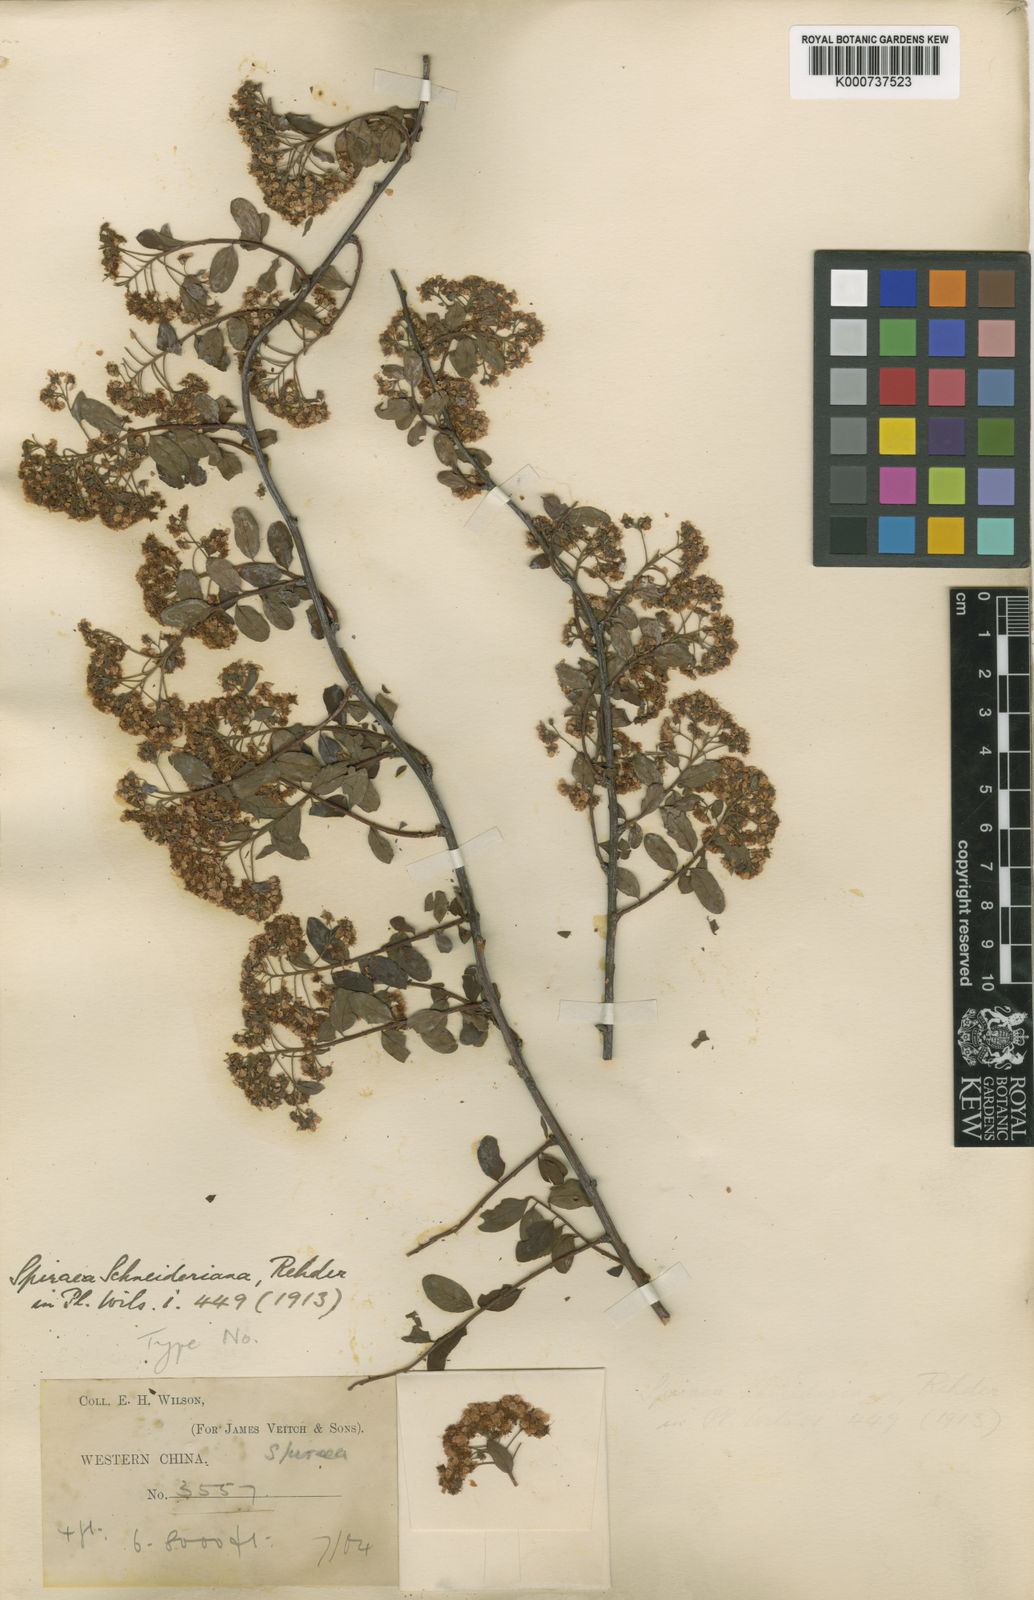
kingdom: Plantae
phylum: Tracheophyta
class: Magnoliopsida
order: Rosales
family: Rosaceae
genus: Spiraea
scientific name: Spiraea schneideriana
